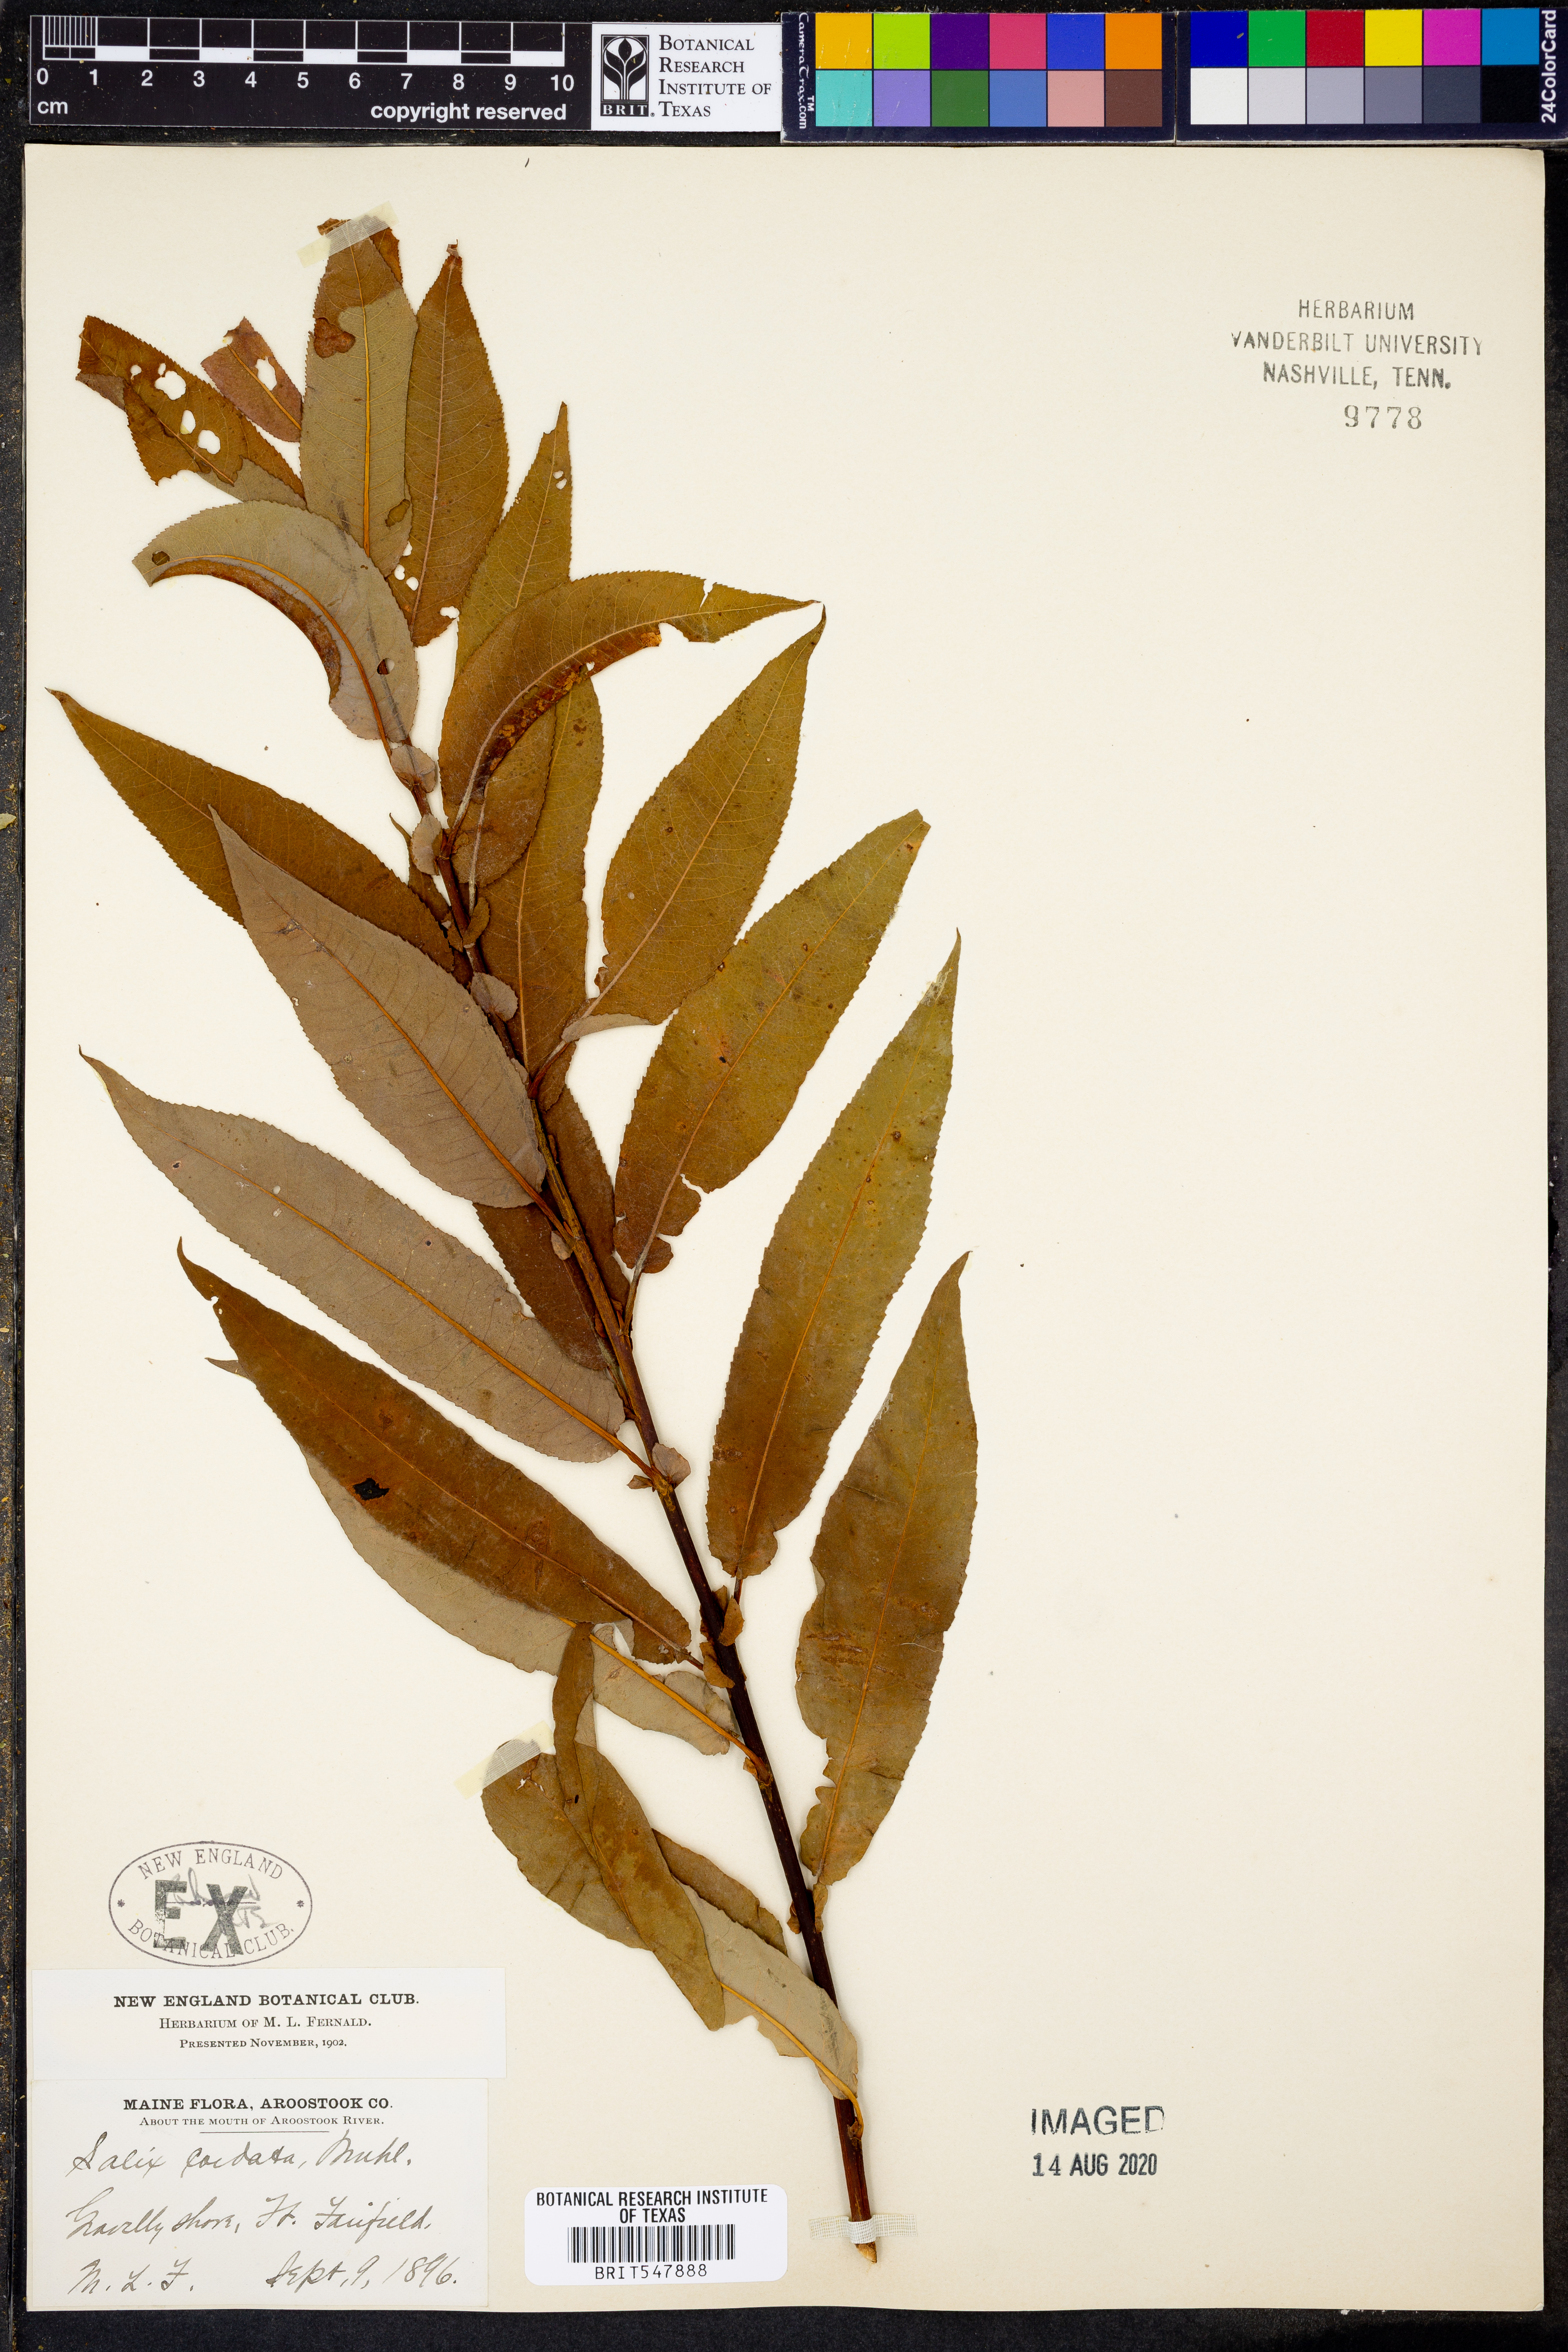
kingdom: Plantae
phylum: Tracheophyta
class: Magnoliopsida
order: Malpighiales
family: Salicaceae
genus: Salix
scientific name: Salix cordata
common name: Heart-leaf willow
